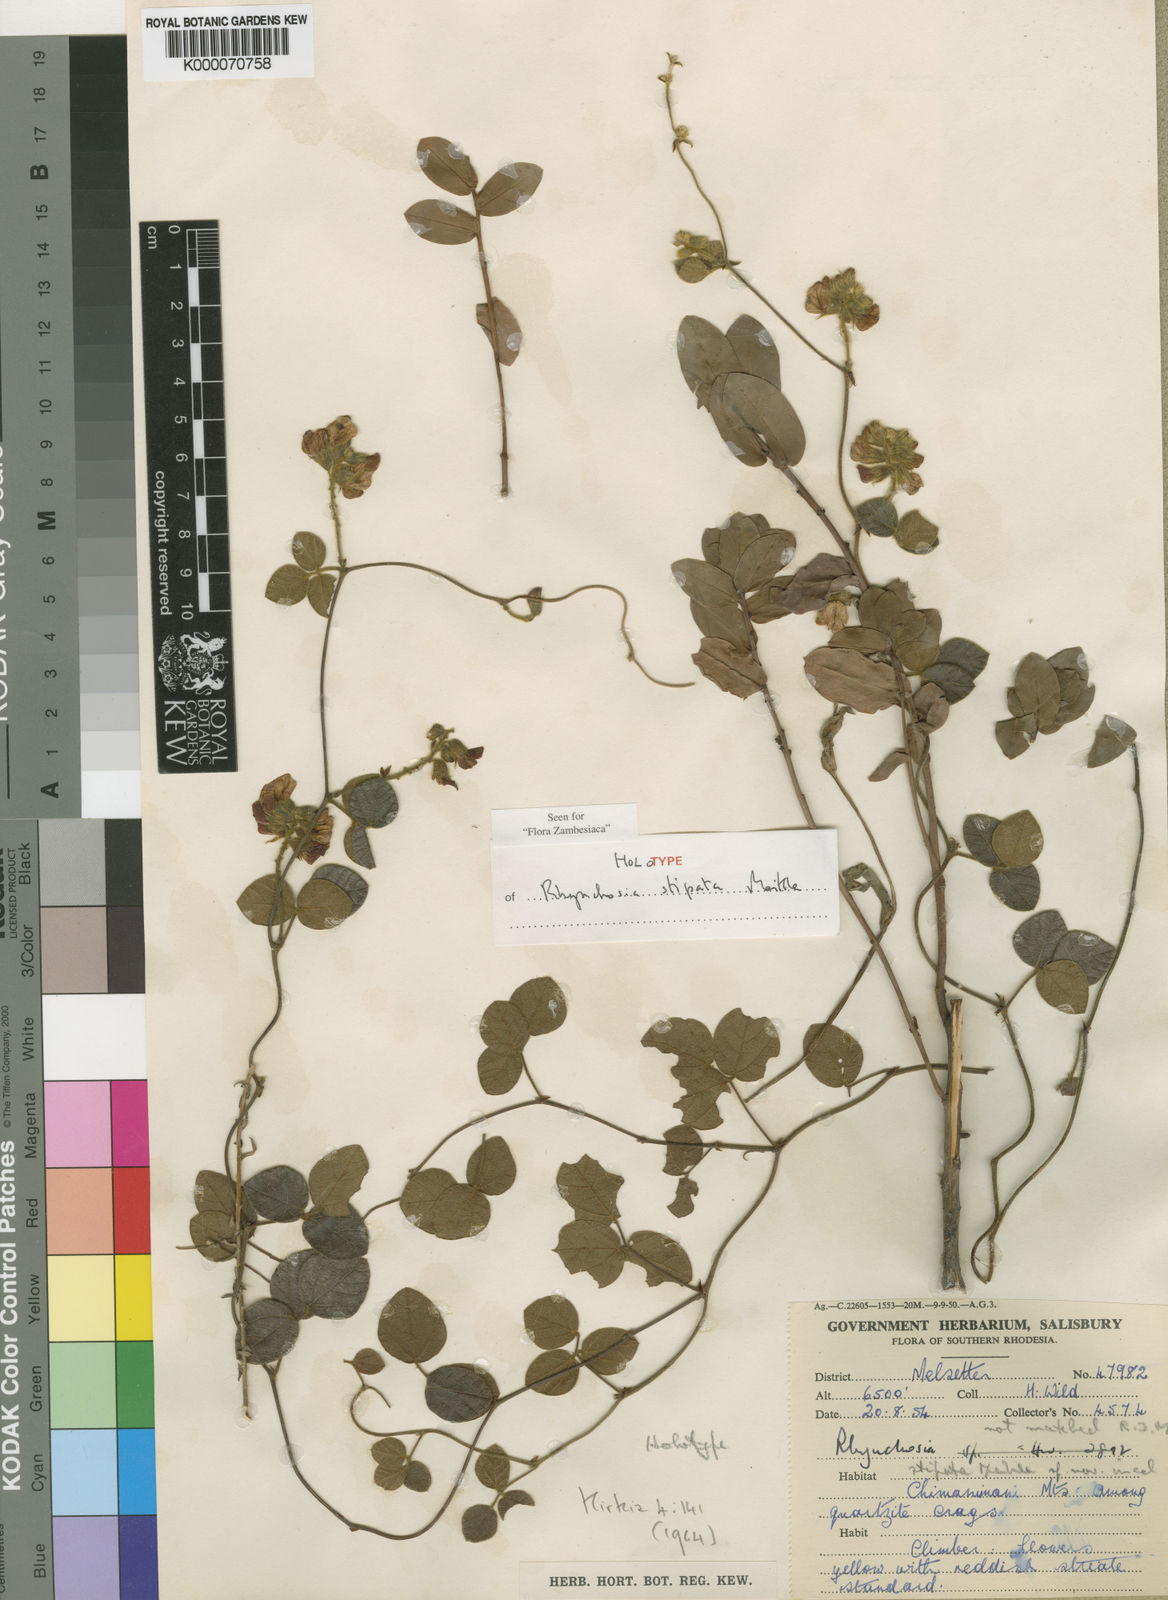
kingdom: Plantae
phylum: Tracheophyta
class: Magnoliopsida
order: Fabales
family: Fabaceae
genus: Rhynchosia
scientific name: Rhynchosia stipata
